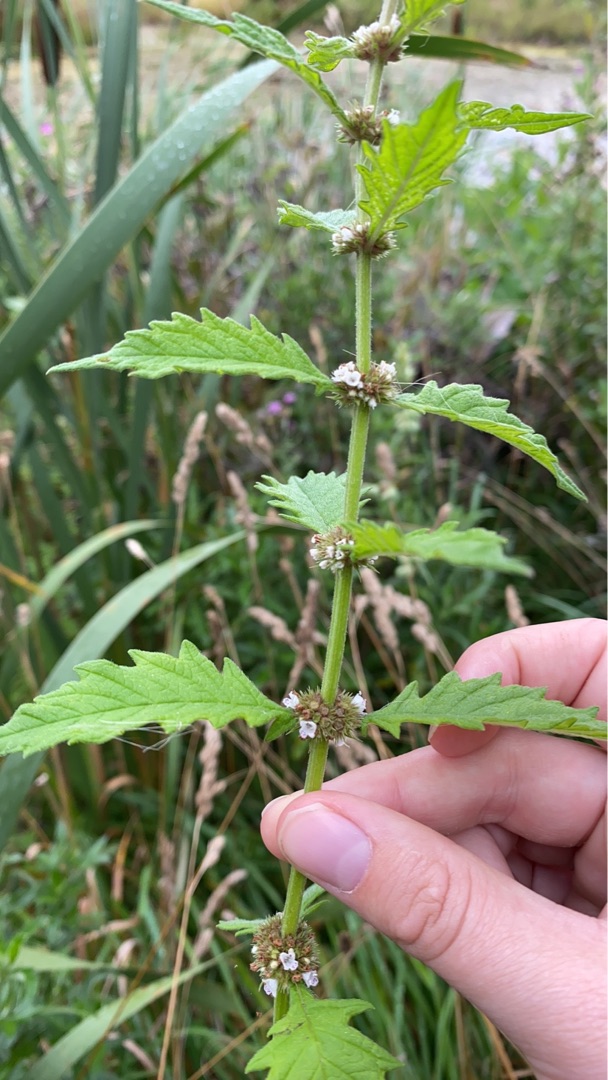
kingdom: Plantae
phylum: Tracheophyta
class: Magnoliopsida
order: Lamiales
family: Lamiaceae
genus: Lycopus
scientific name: Lycopus europaeus
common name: Sværtevæld
